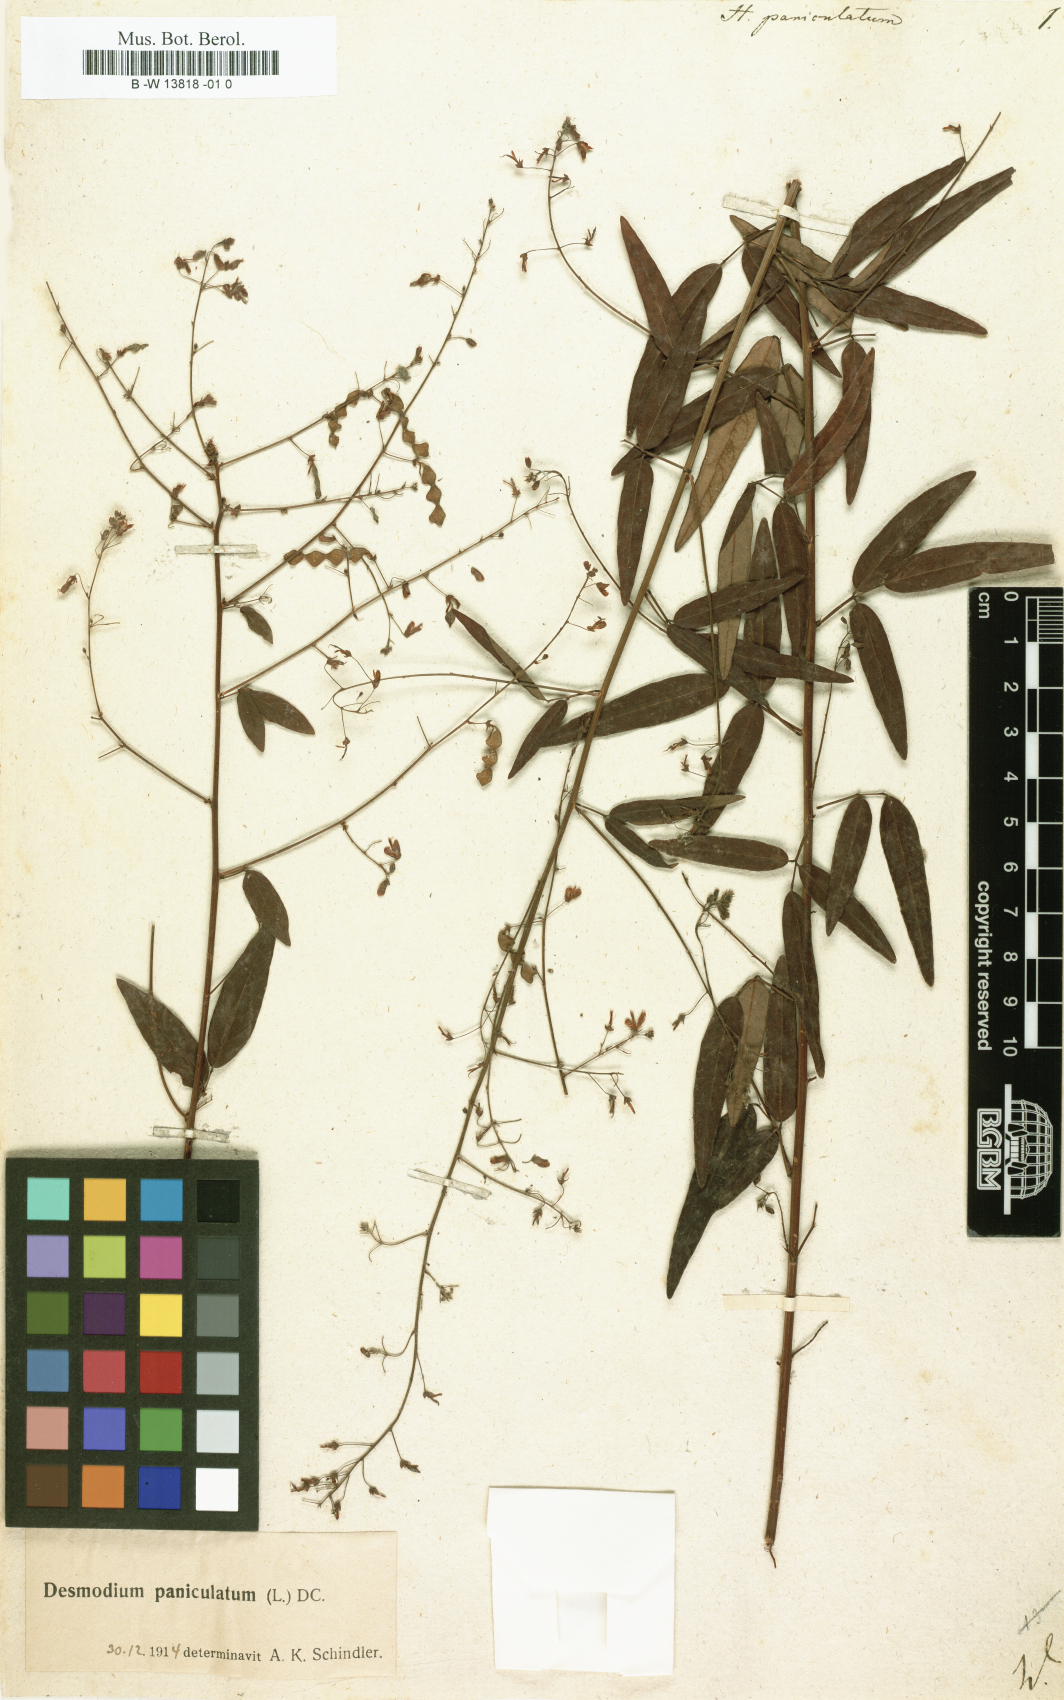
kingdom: Plantae
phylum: Tracheophyta
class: Magnoliopsida
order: Fabales
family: Fabaceae
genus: Desmodium
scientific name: Desmodium paniculatum
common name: Panicled tick-clover
